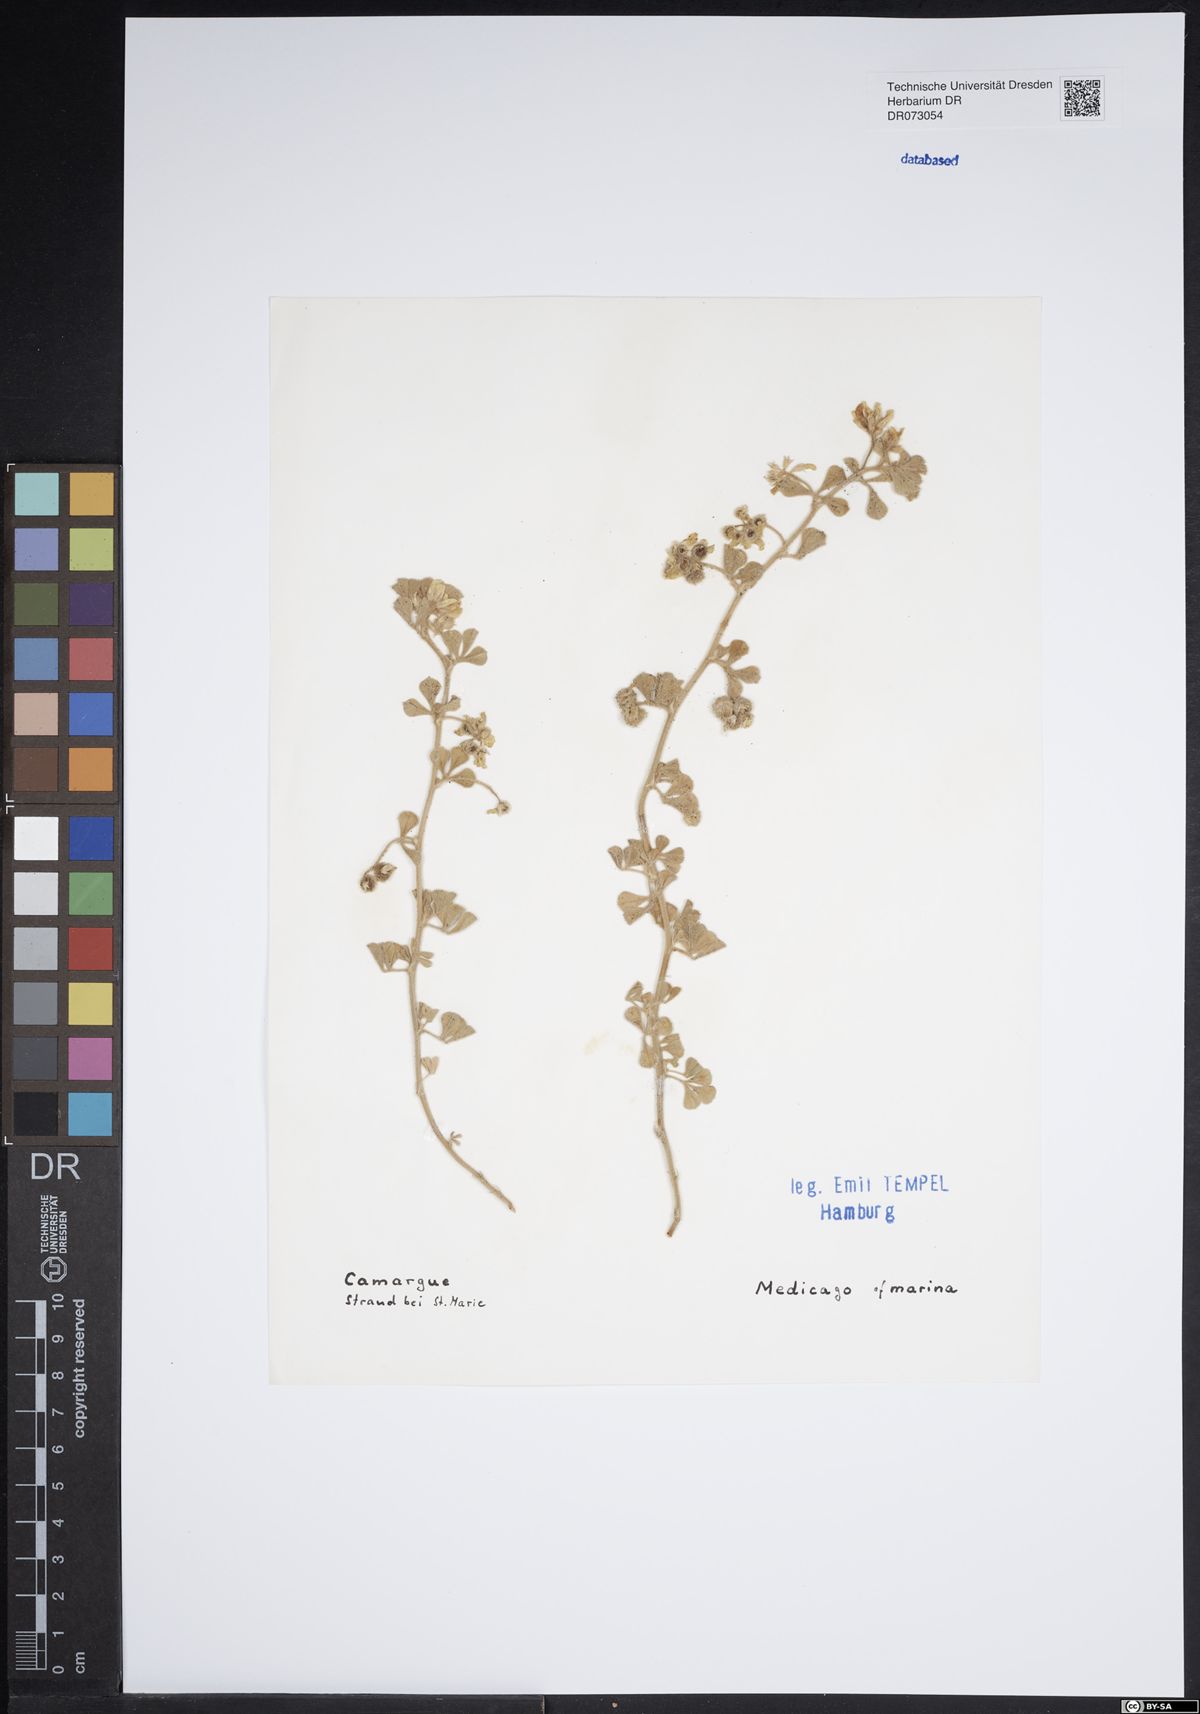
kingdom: Plantae
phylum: Tracheophyta
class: Magnoliopsida
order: Fabales
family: Fabaceae
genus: Medicago
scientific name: Medicago marina
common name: Sea medick
